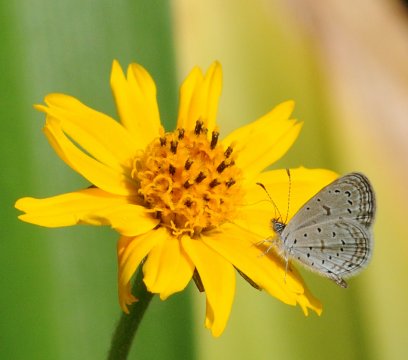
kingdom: Animalia
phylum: Arthropoda
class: Insecta
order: Lepidoptera
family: Lycaenidae
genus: Zizula
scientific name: Zizula hylax
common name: Tiny Grass Blue
